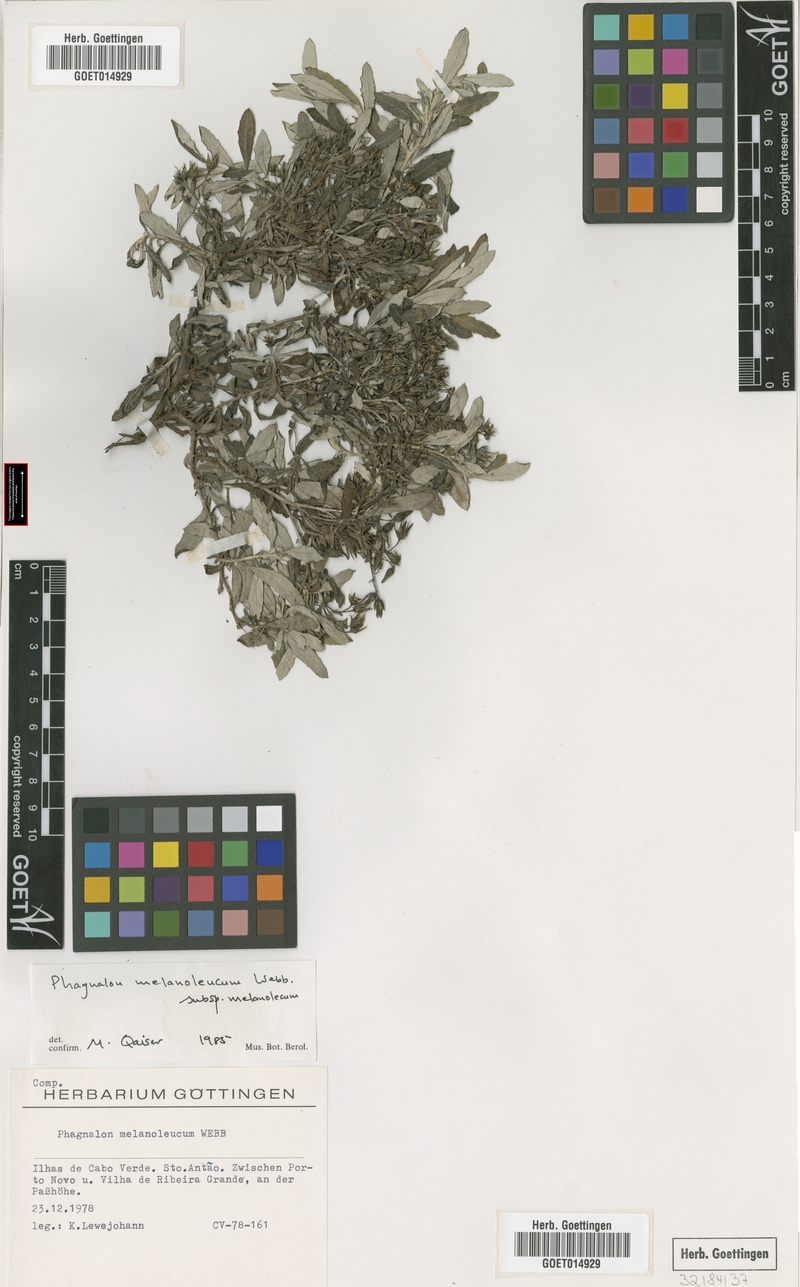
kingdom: Plantae
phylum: Tracheophyta
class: Magnoliopsida
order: Asterales
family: Asteraceae
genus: Phagnalon
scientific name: Phagnalon melanoleucum
